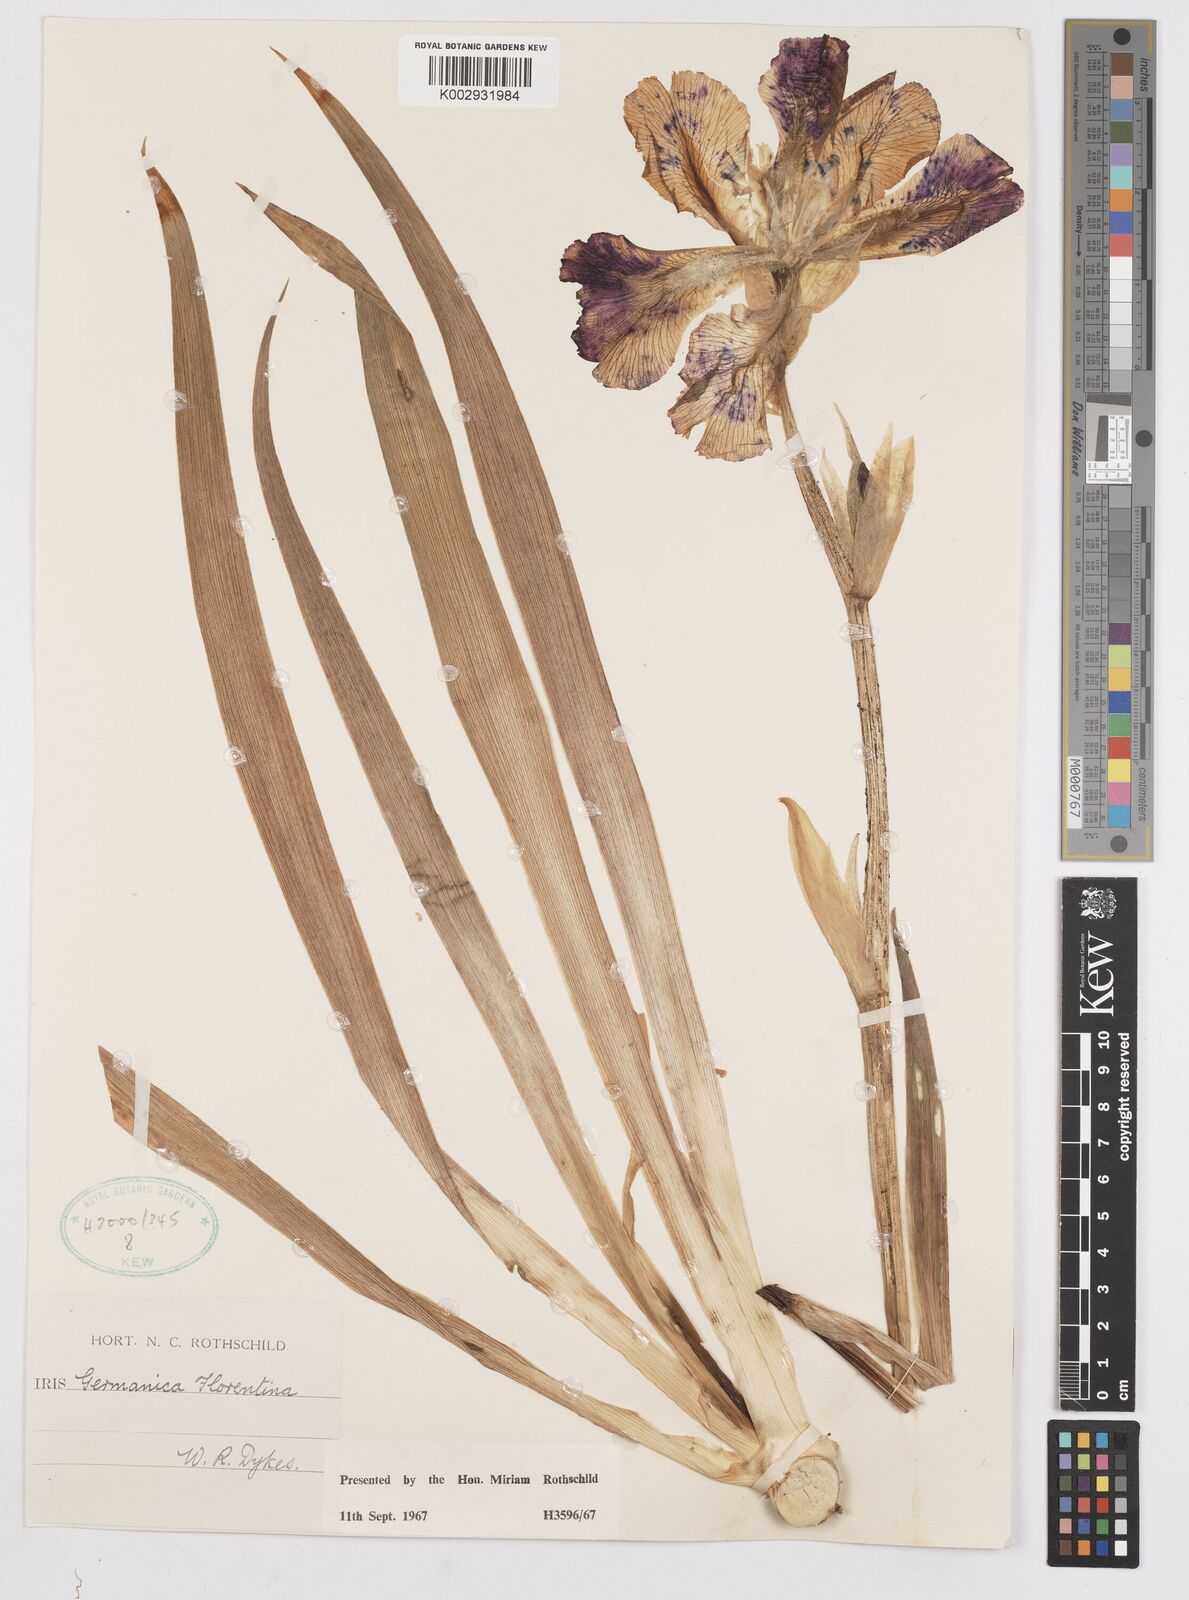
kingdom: Plantae
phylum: Tracheophyta
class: Liliopsida
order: Asparagales
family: Iridaceae
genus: Iris
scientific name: Iris
